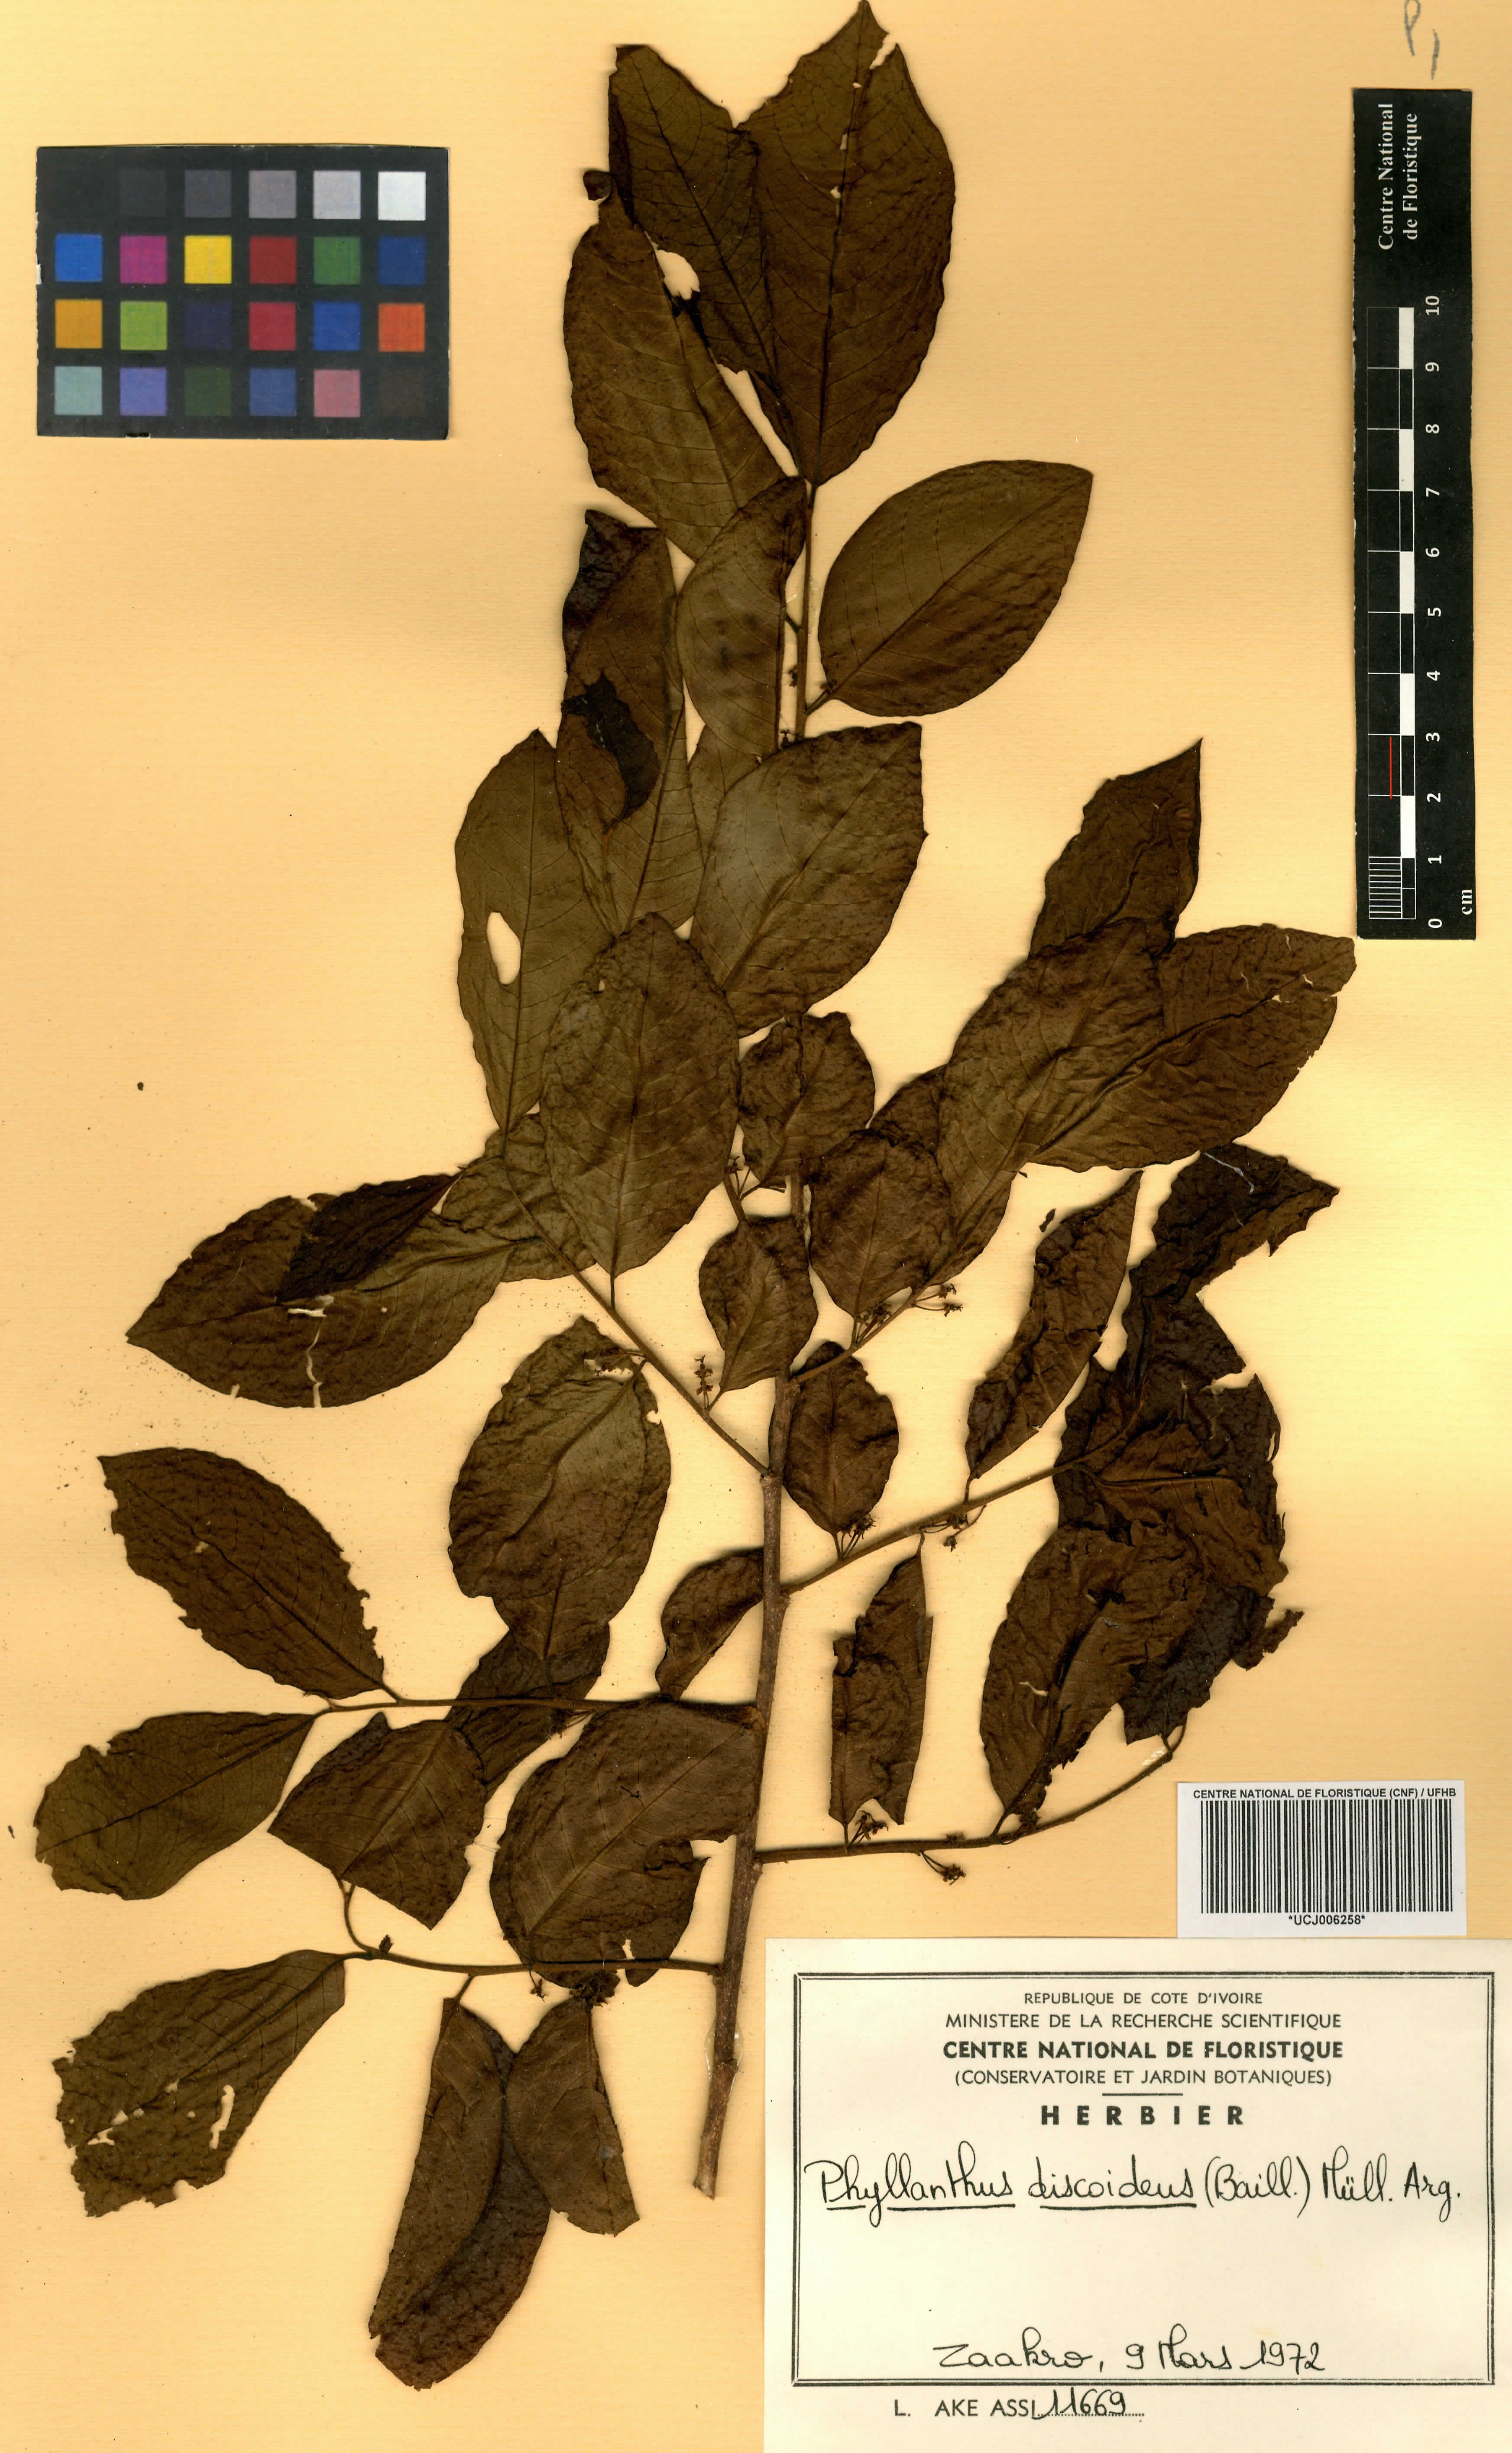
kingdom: Plantae
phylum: Tracheophyta
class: Magnoliopsida
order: Malpighiales
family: Phyllanthaceae
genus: Margaritaria
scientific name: Margaritaria discoidea
